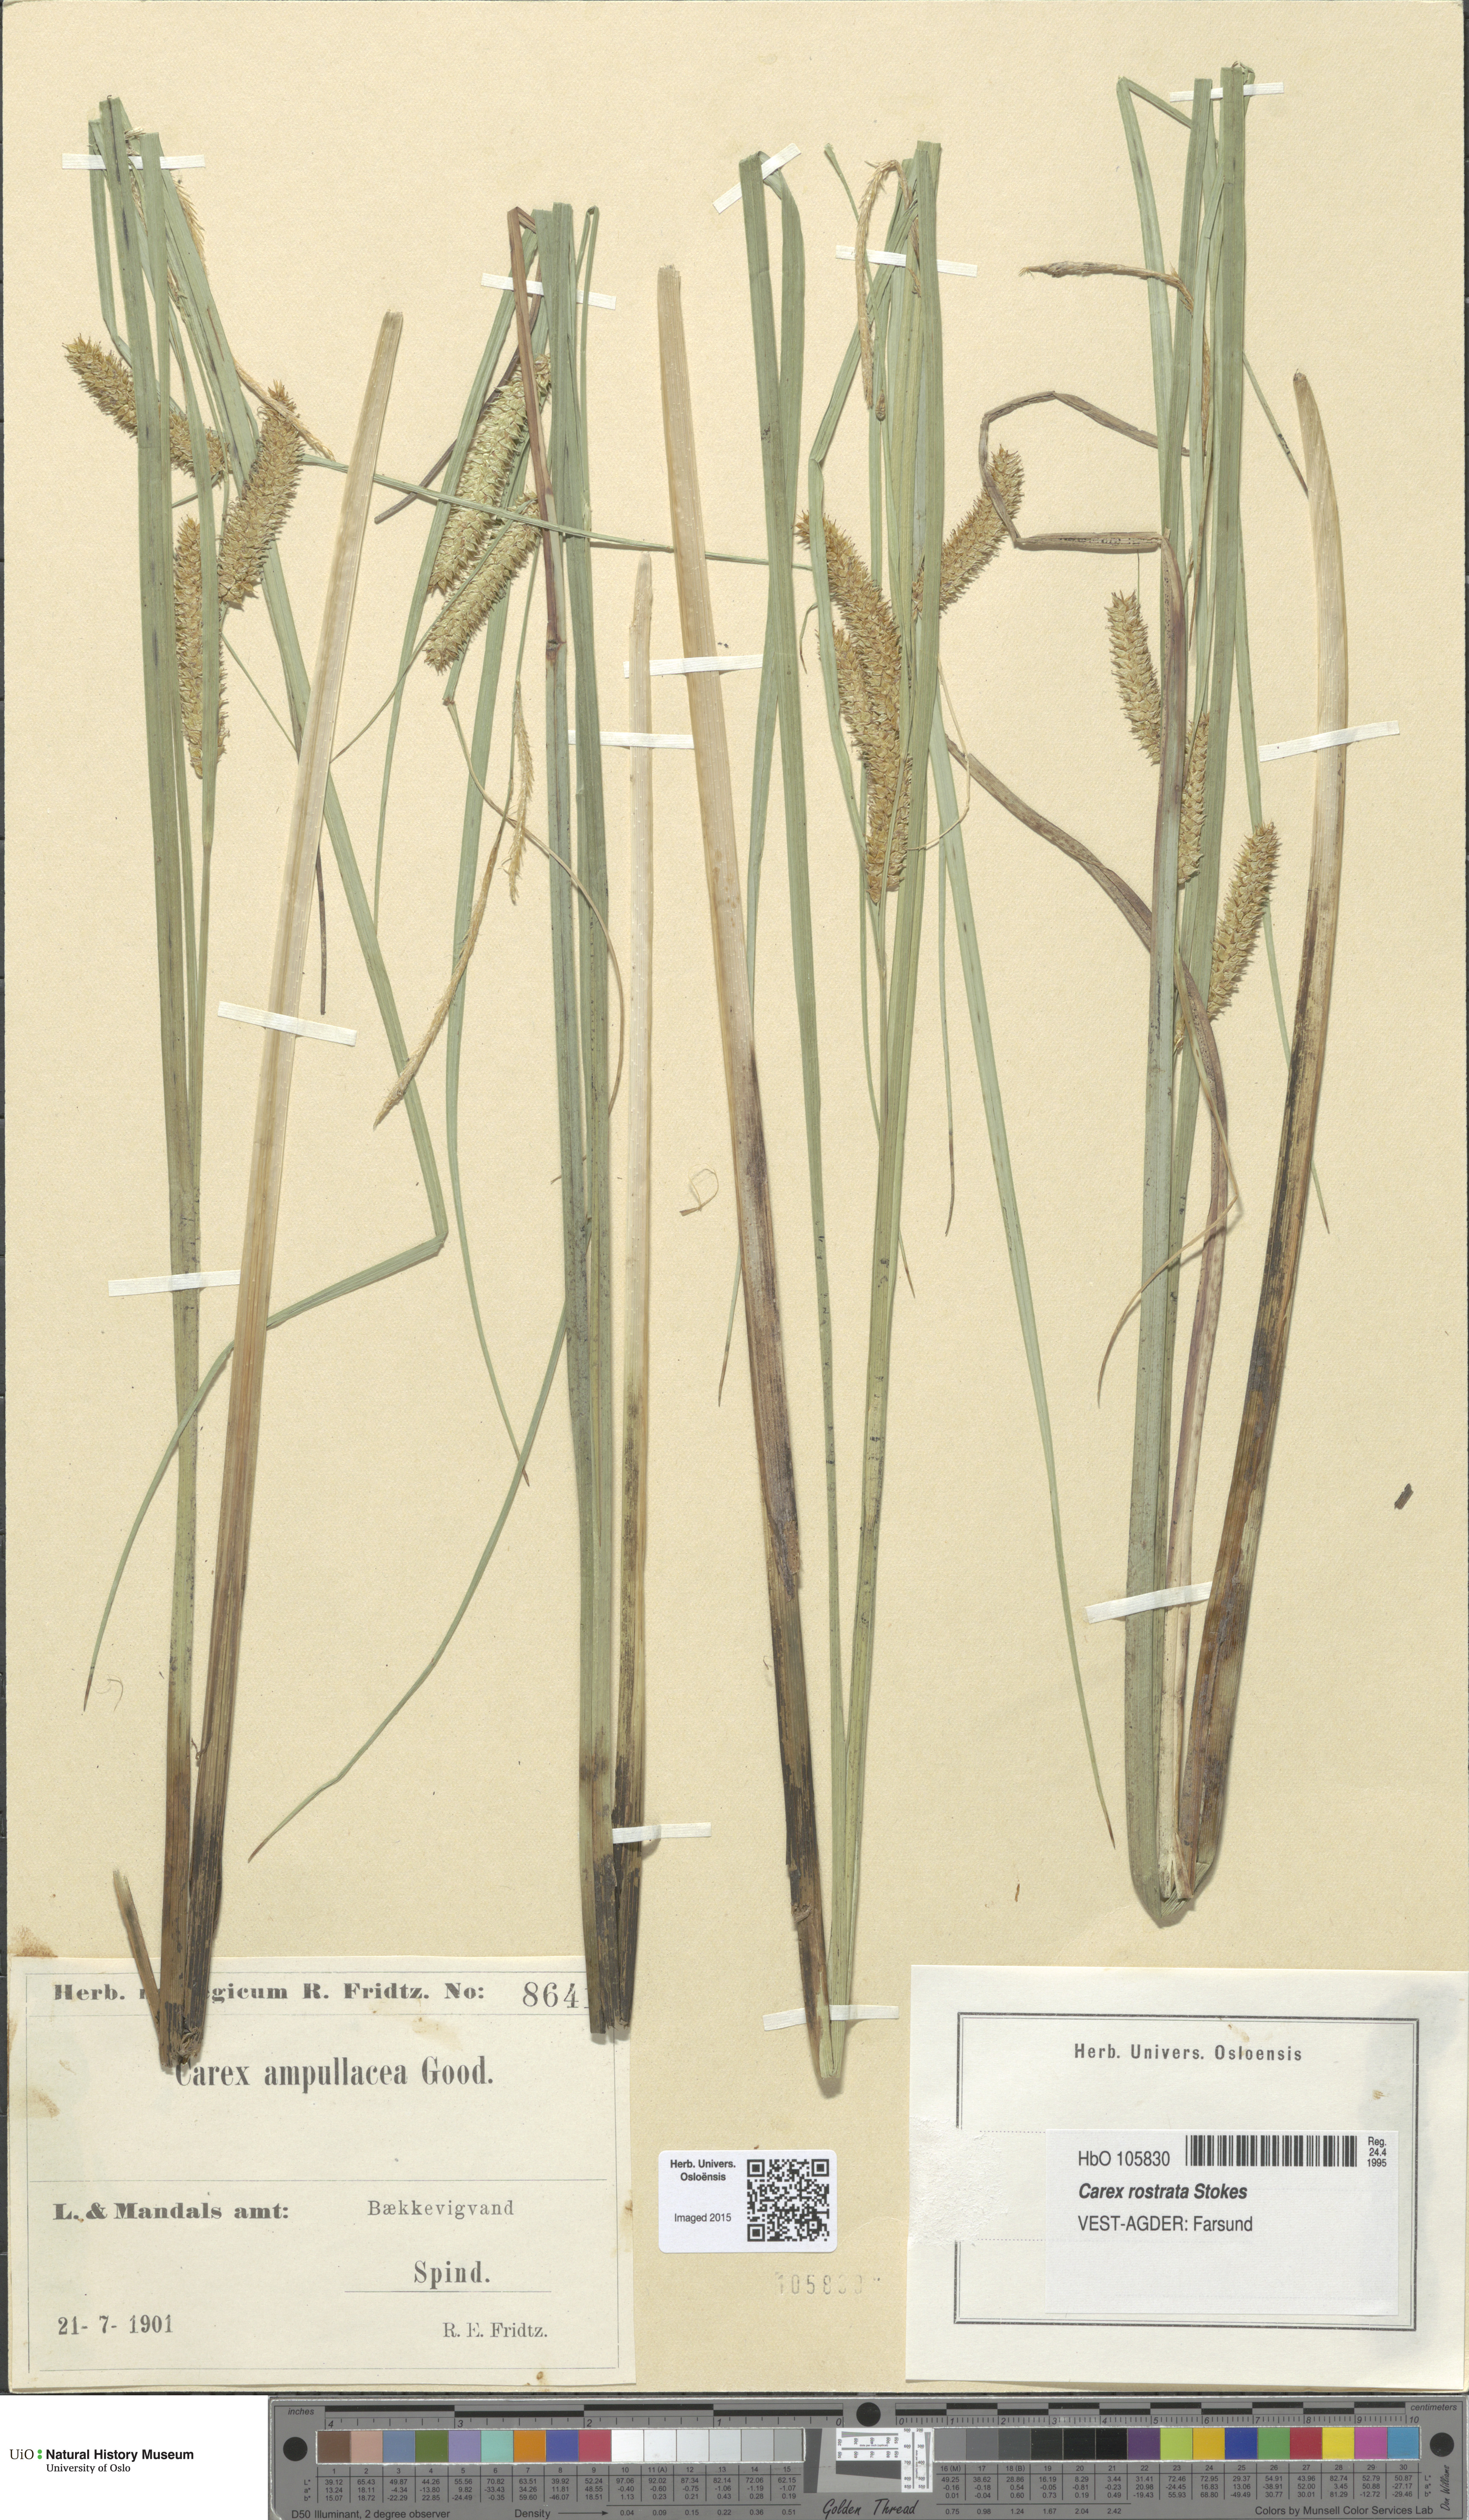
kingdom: Plantae
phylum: Tracheophyta
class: Liliopsida
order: Poales
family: Cyperaceae
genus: Carex
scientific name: Carex rostrata
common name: Bottle sedge
